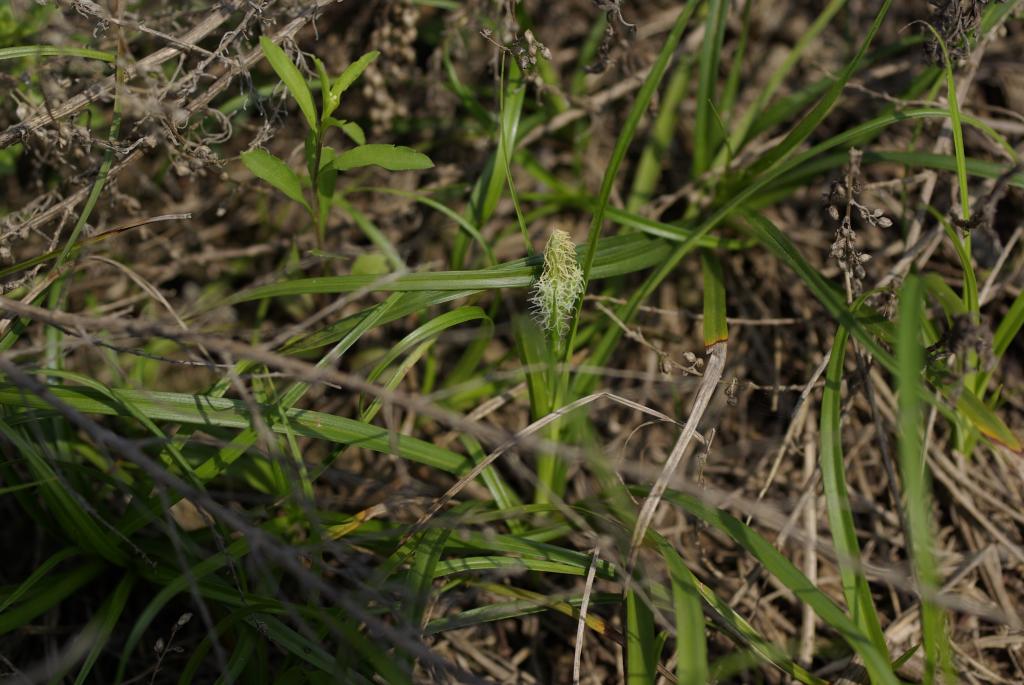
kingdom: Plantae
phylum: Tracheophyta
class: Liliopsida
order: Poales
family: Cyperaceae
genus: Carex
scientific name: Carex breviculmis
